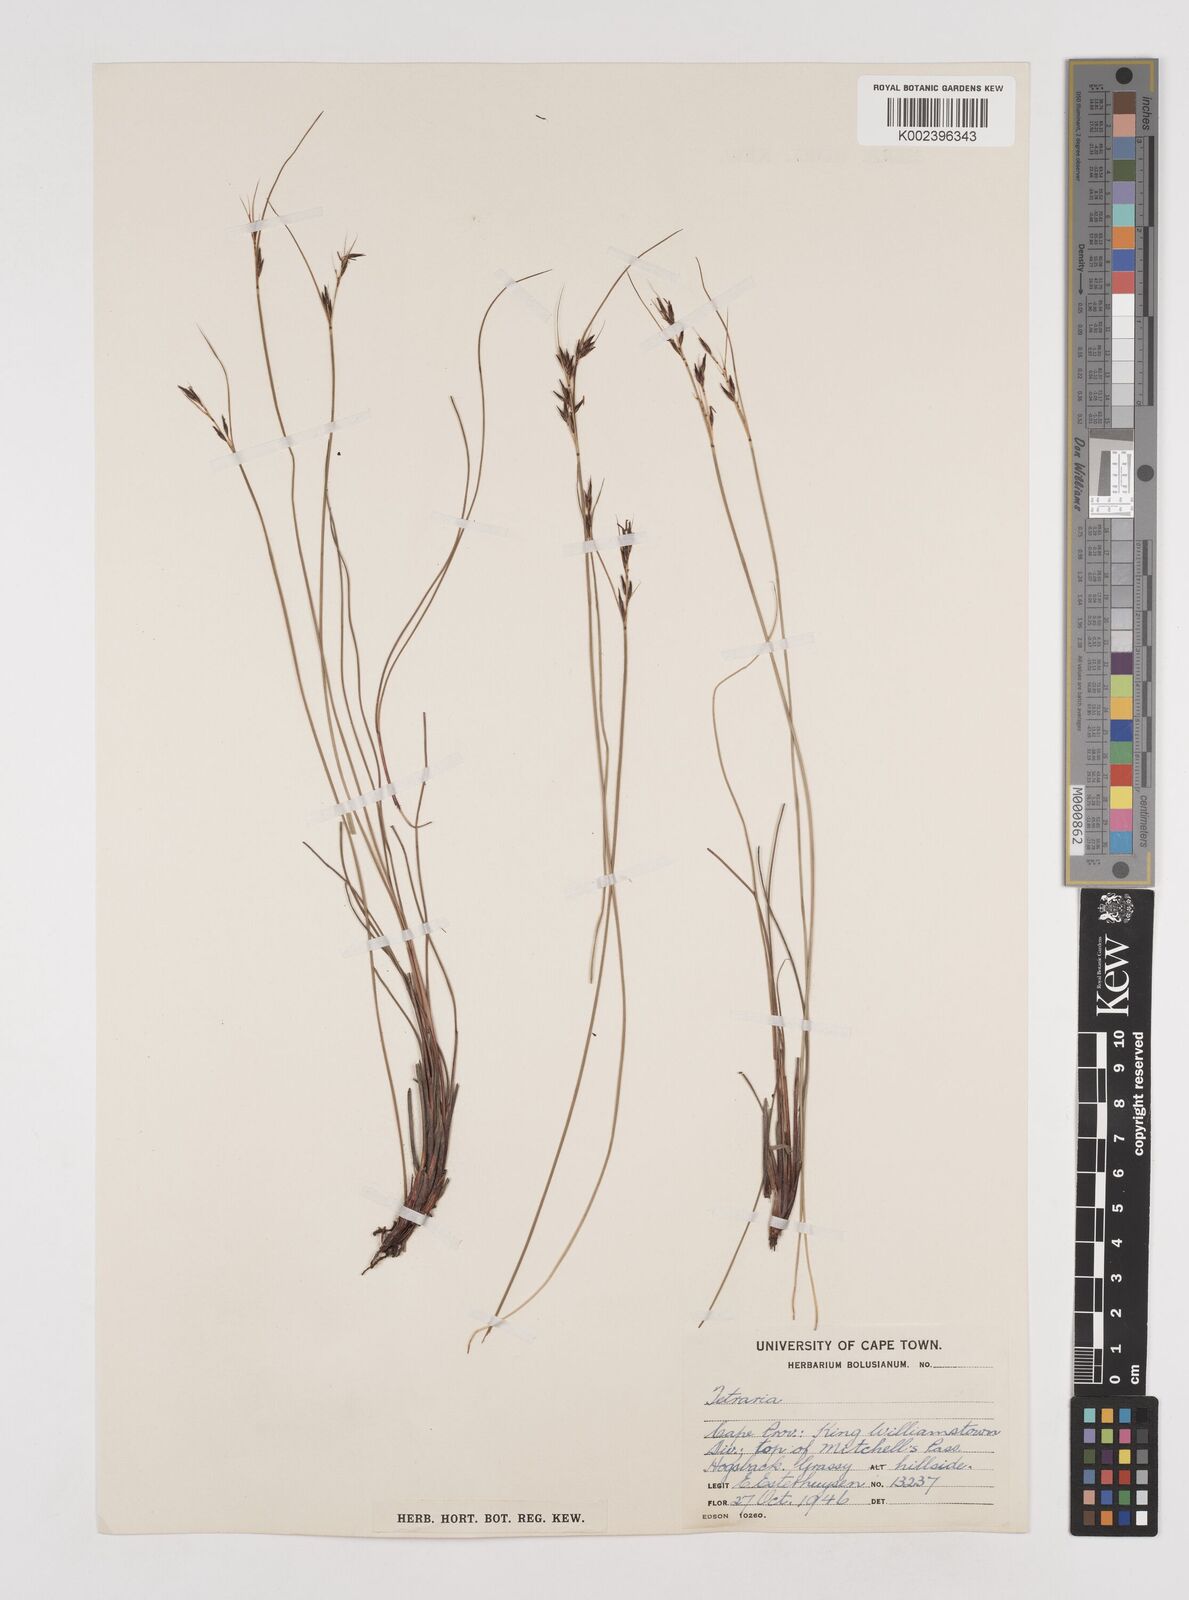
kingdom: Plantae
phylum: Tracheophyta
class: Liliopsida
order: Poales
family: Cyperaceae
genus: Schoenus
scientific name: Schoenus cuspidatus
